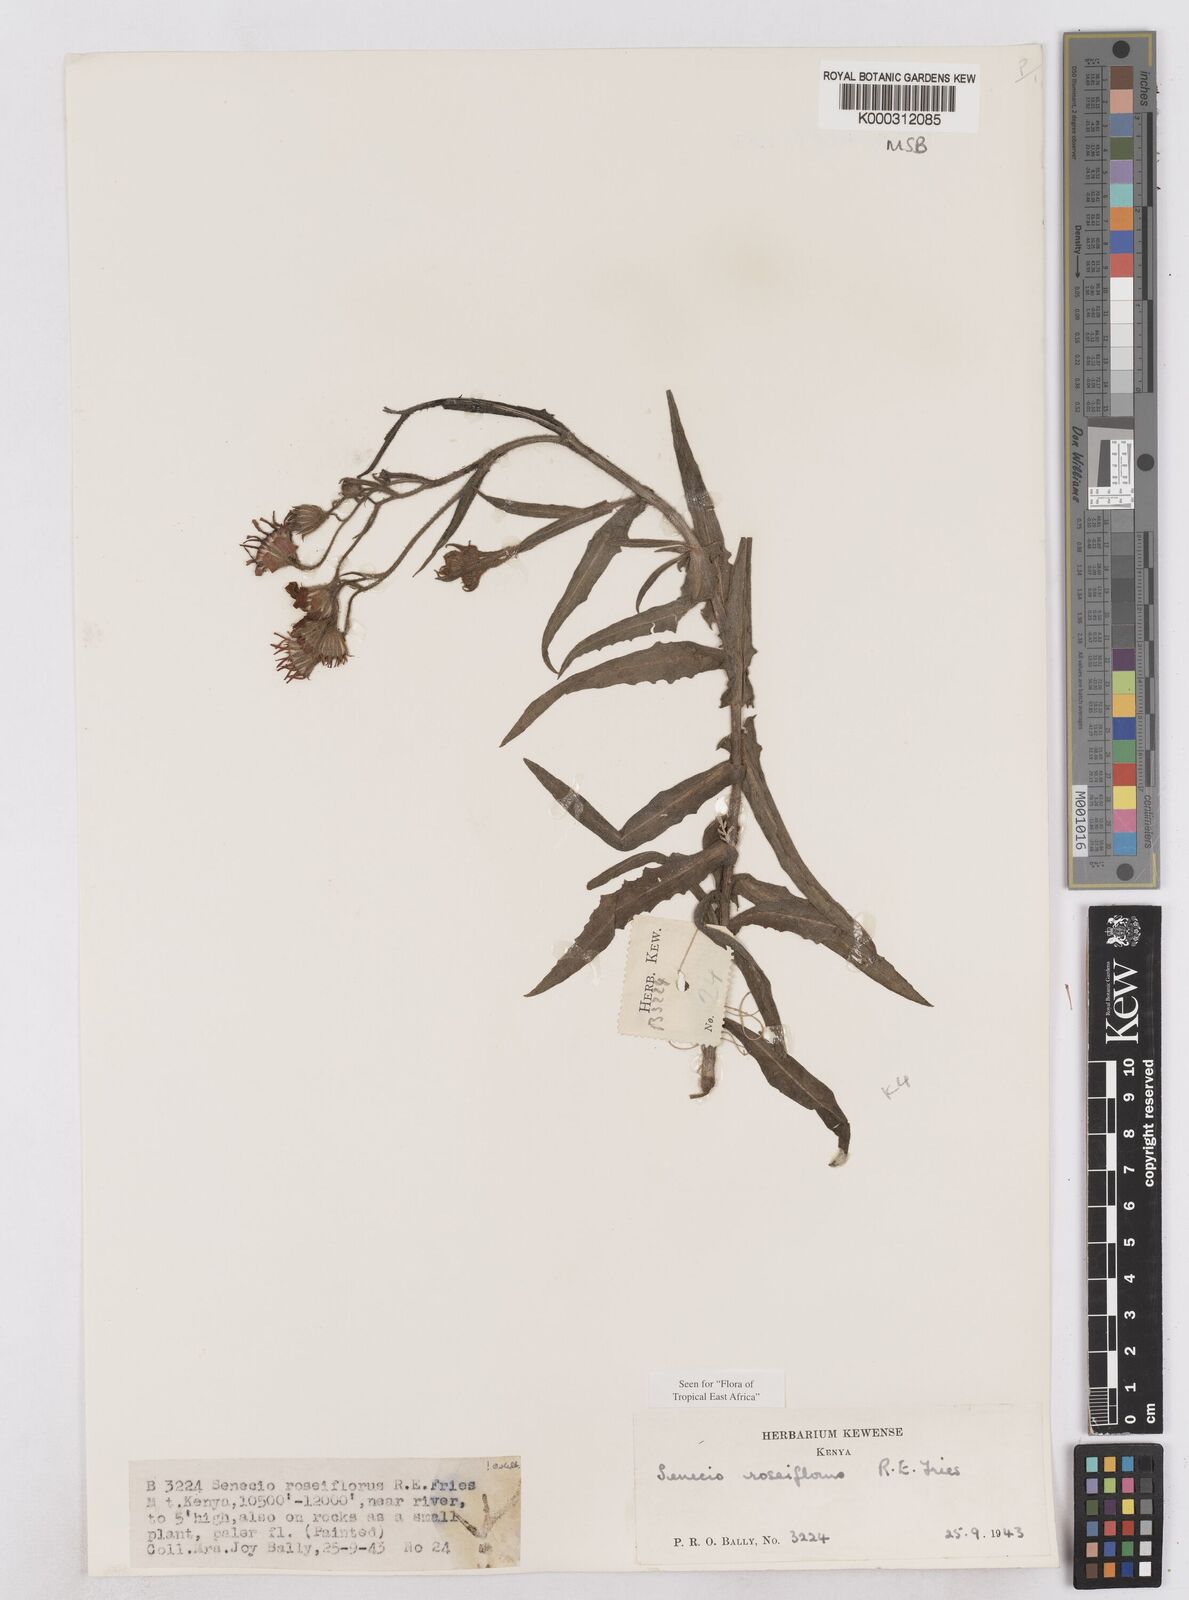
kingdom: Plantae
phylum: Tracheophyta
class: Magnoliopsida
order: Asterales
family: Asteraceae
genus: Senecio
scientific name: Senecio roseiflorus
